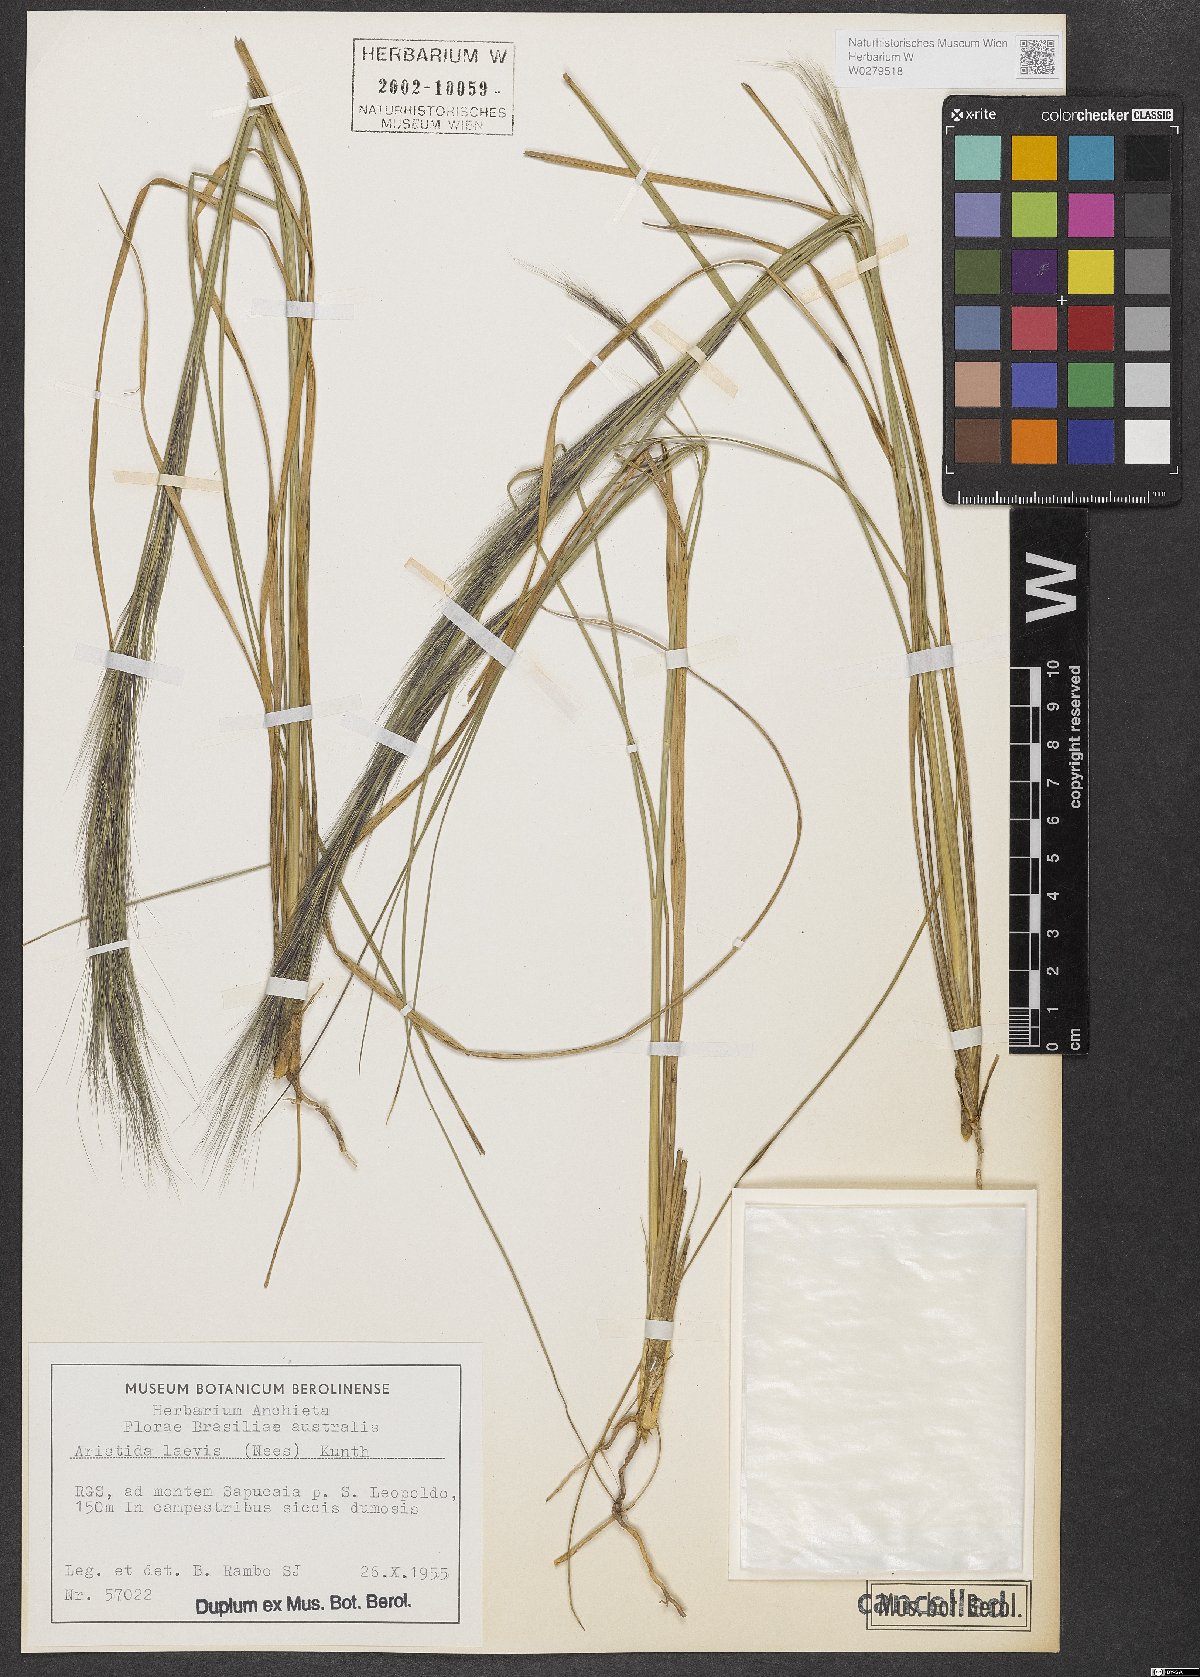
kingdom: Plantae
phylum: Tracheophyta
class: Liliopsida
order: Poales
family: Poaceae
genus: Aristida
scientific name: Aristida pallens
